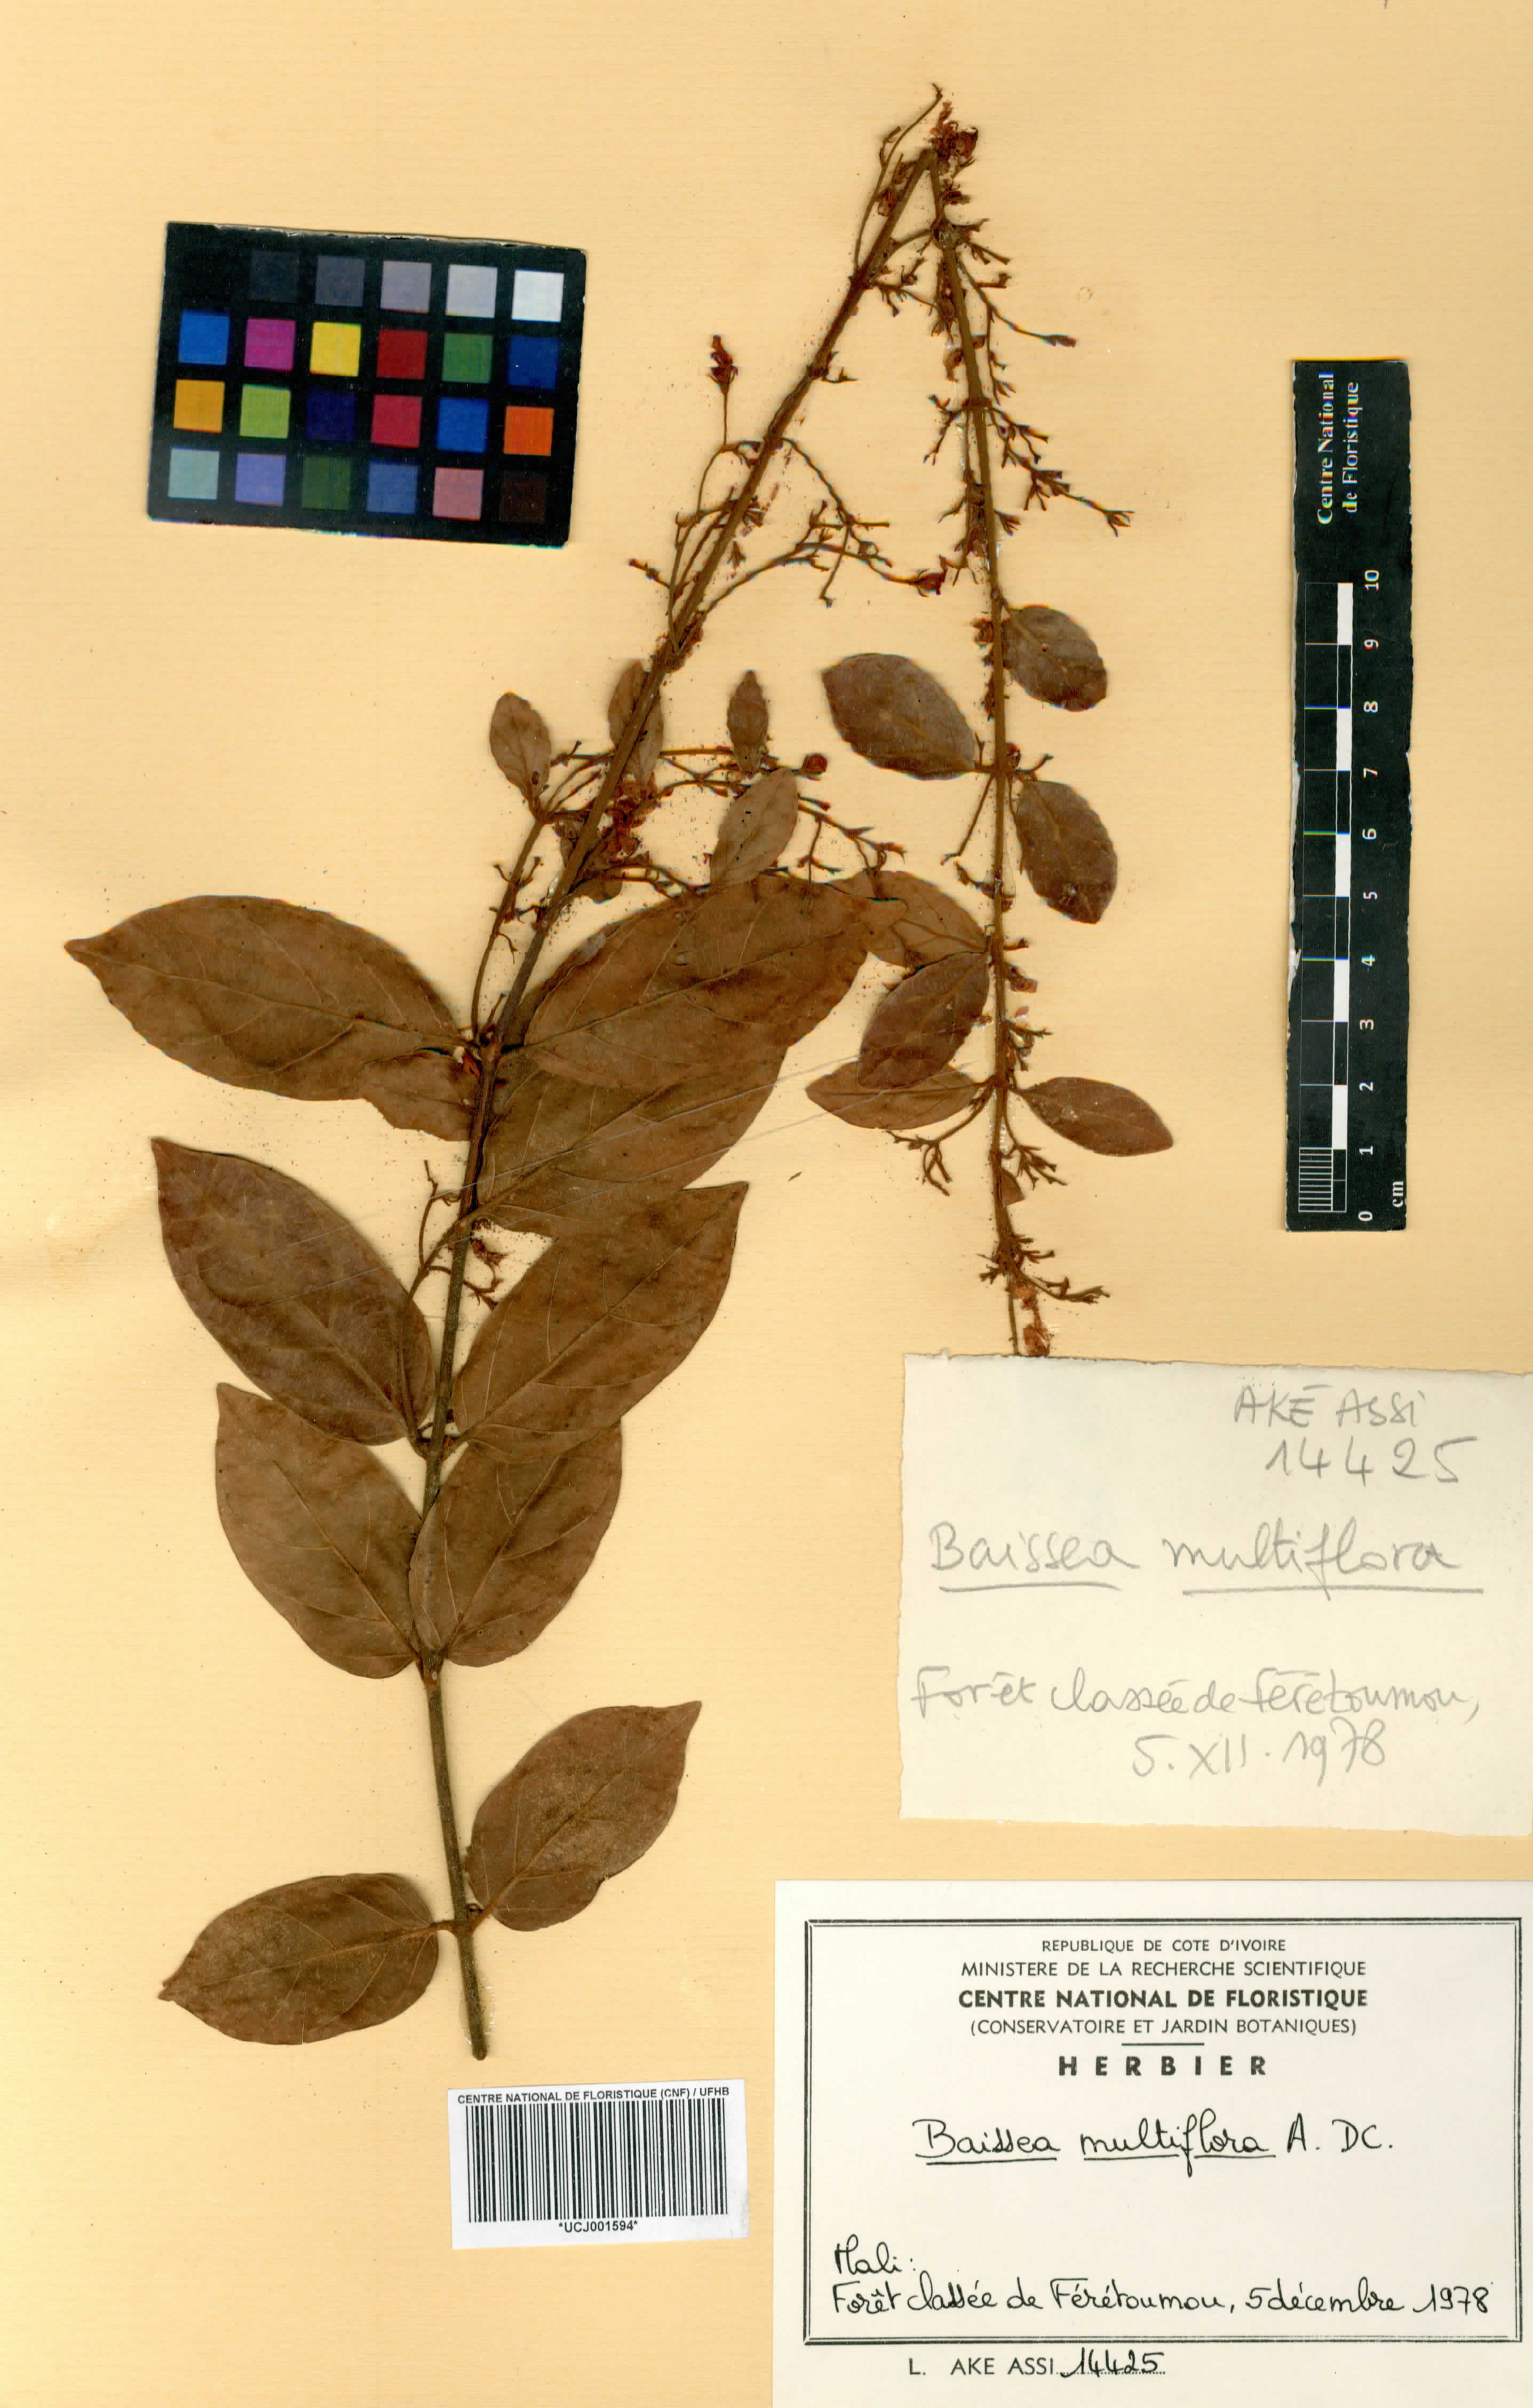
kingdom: Plantae
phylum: Tracheophyta
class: Magnoliopsida
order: Gentianales
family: Apocynaceae
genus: Baissea
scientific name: Baissea multiflora
